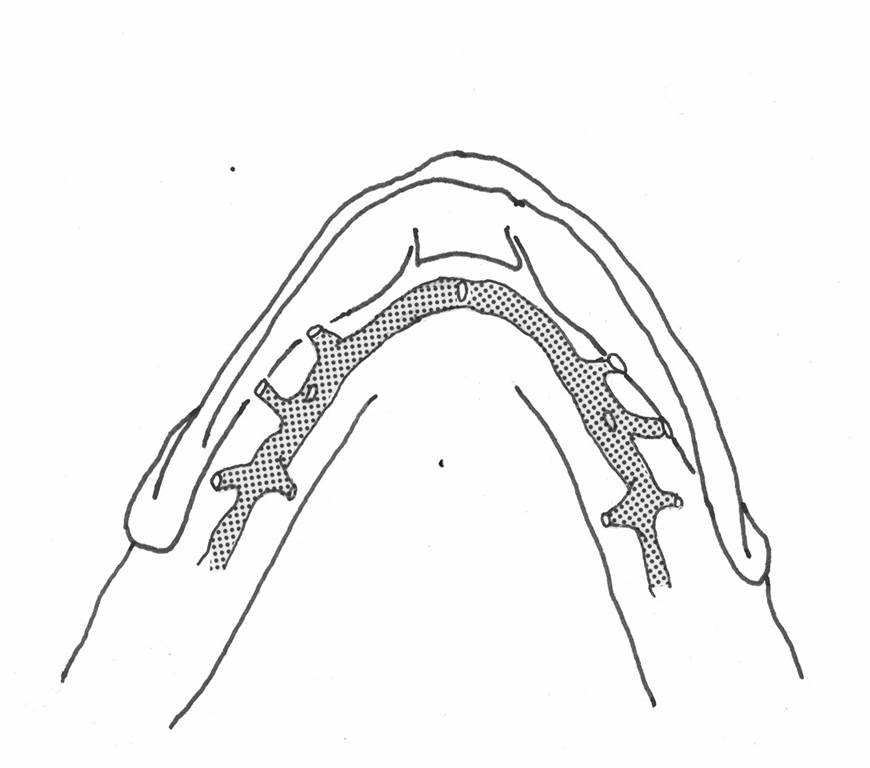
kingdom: Animalia
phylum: Chordata
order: Perciformes
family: Tripterygiidae
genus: Helcogramma
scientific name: Helcogramma rharhabe
